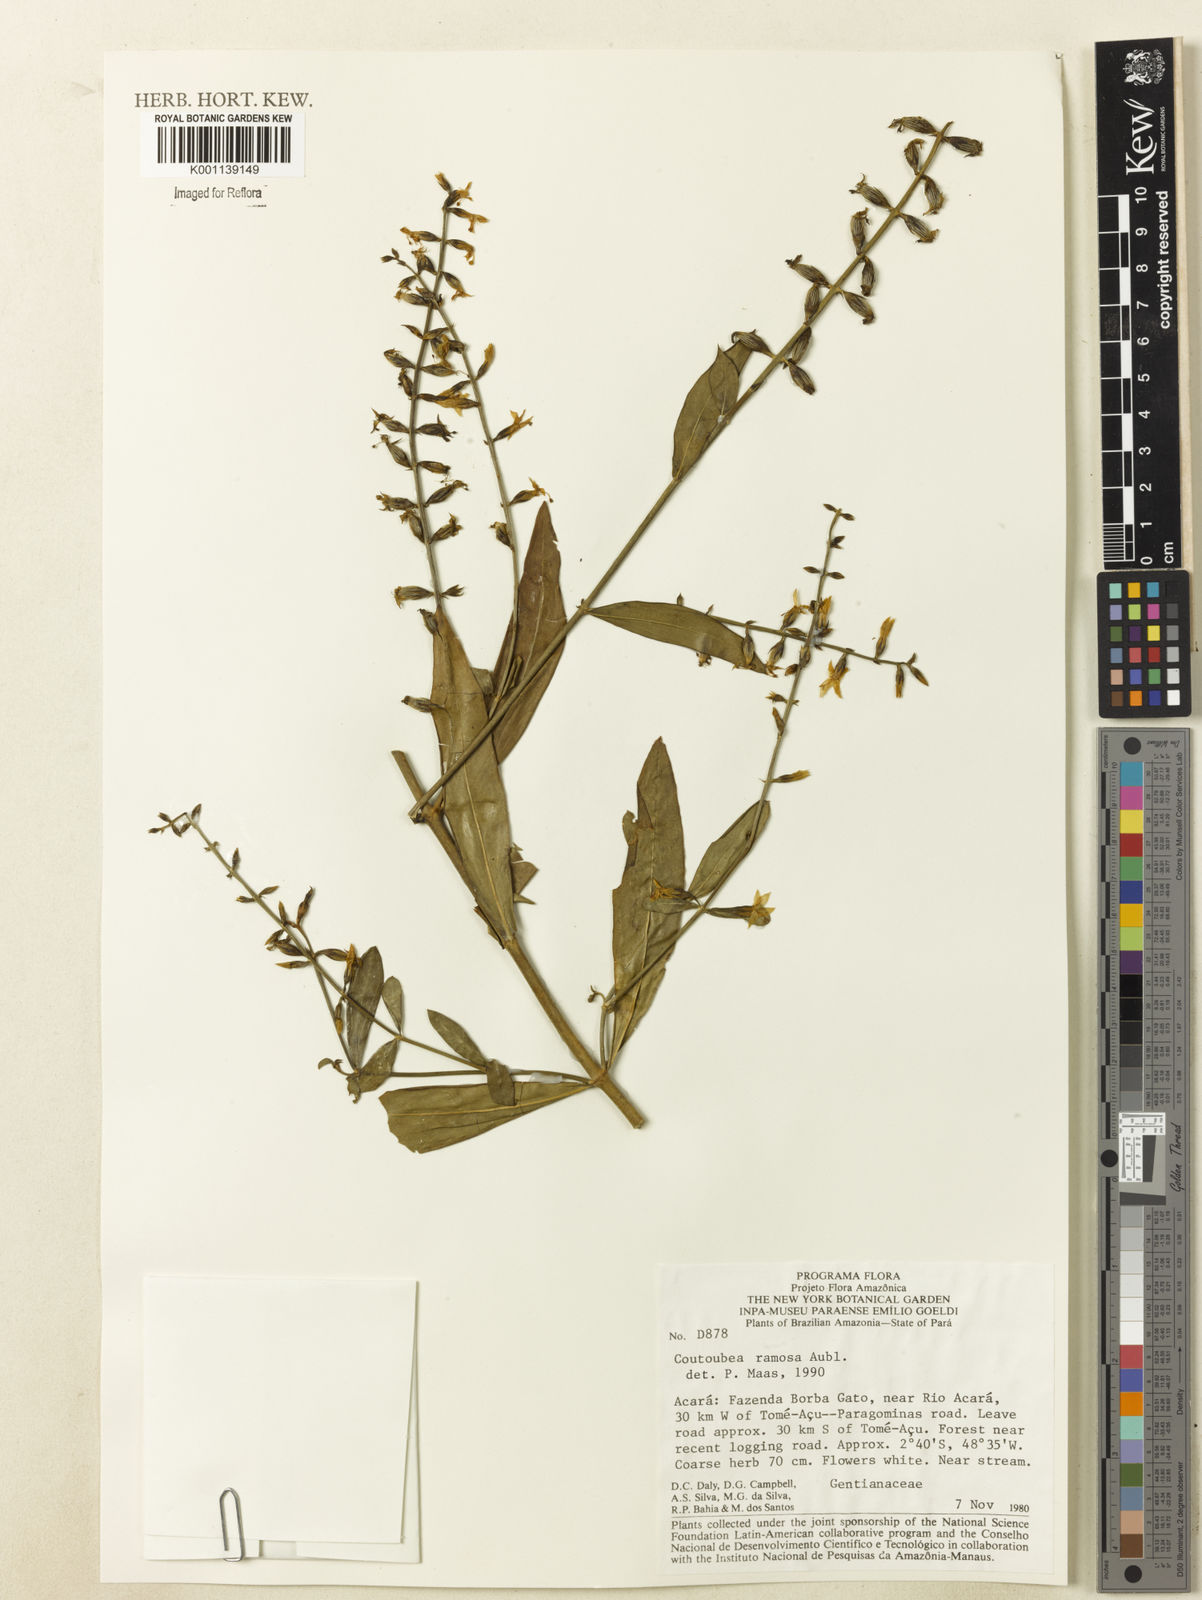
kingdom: Plantae
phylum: Tracheophyta
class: Magnoliopsida
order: Gentianales
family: Gentianaceae
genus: Coutoubea
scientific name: Coutoubea ramosa
